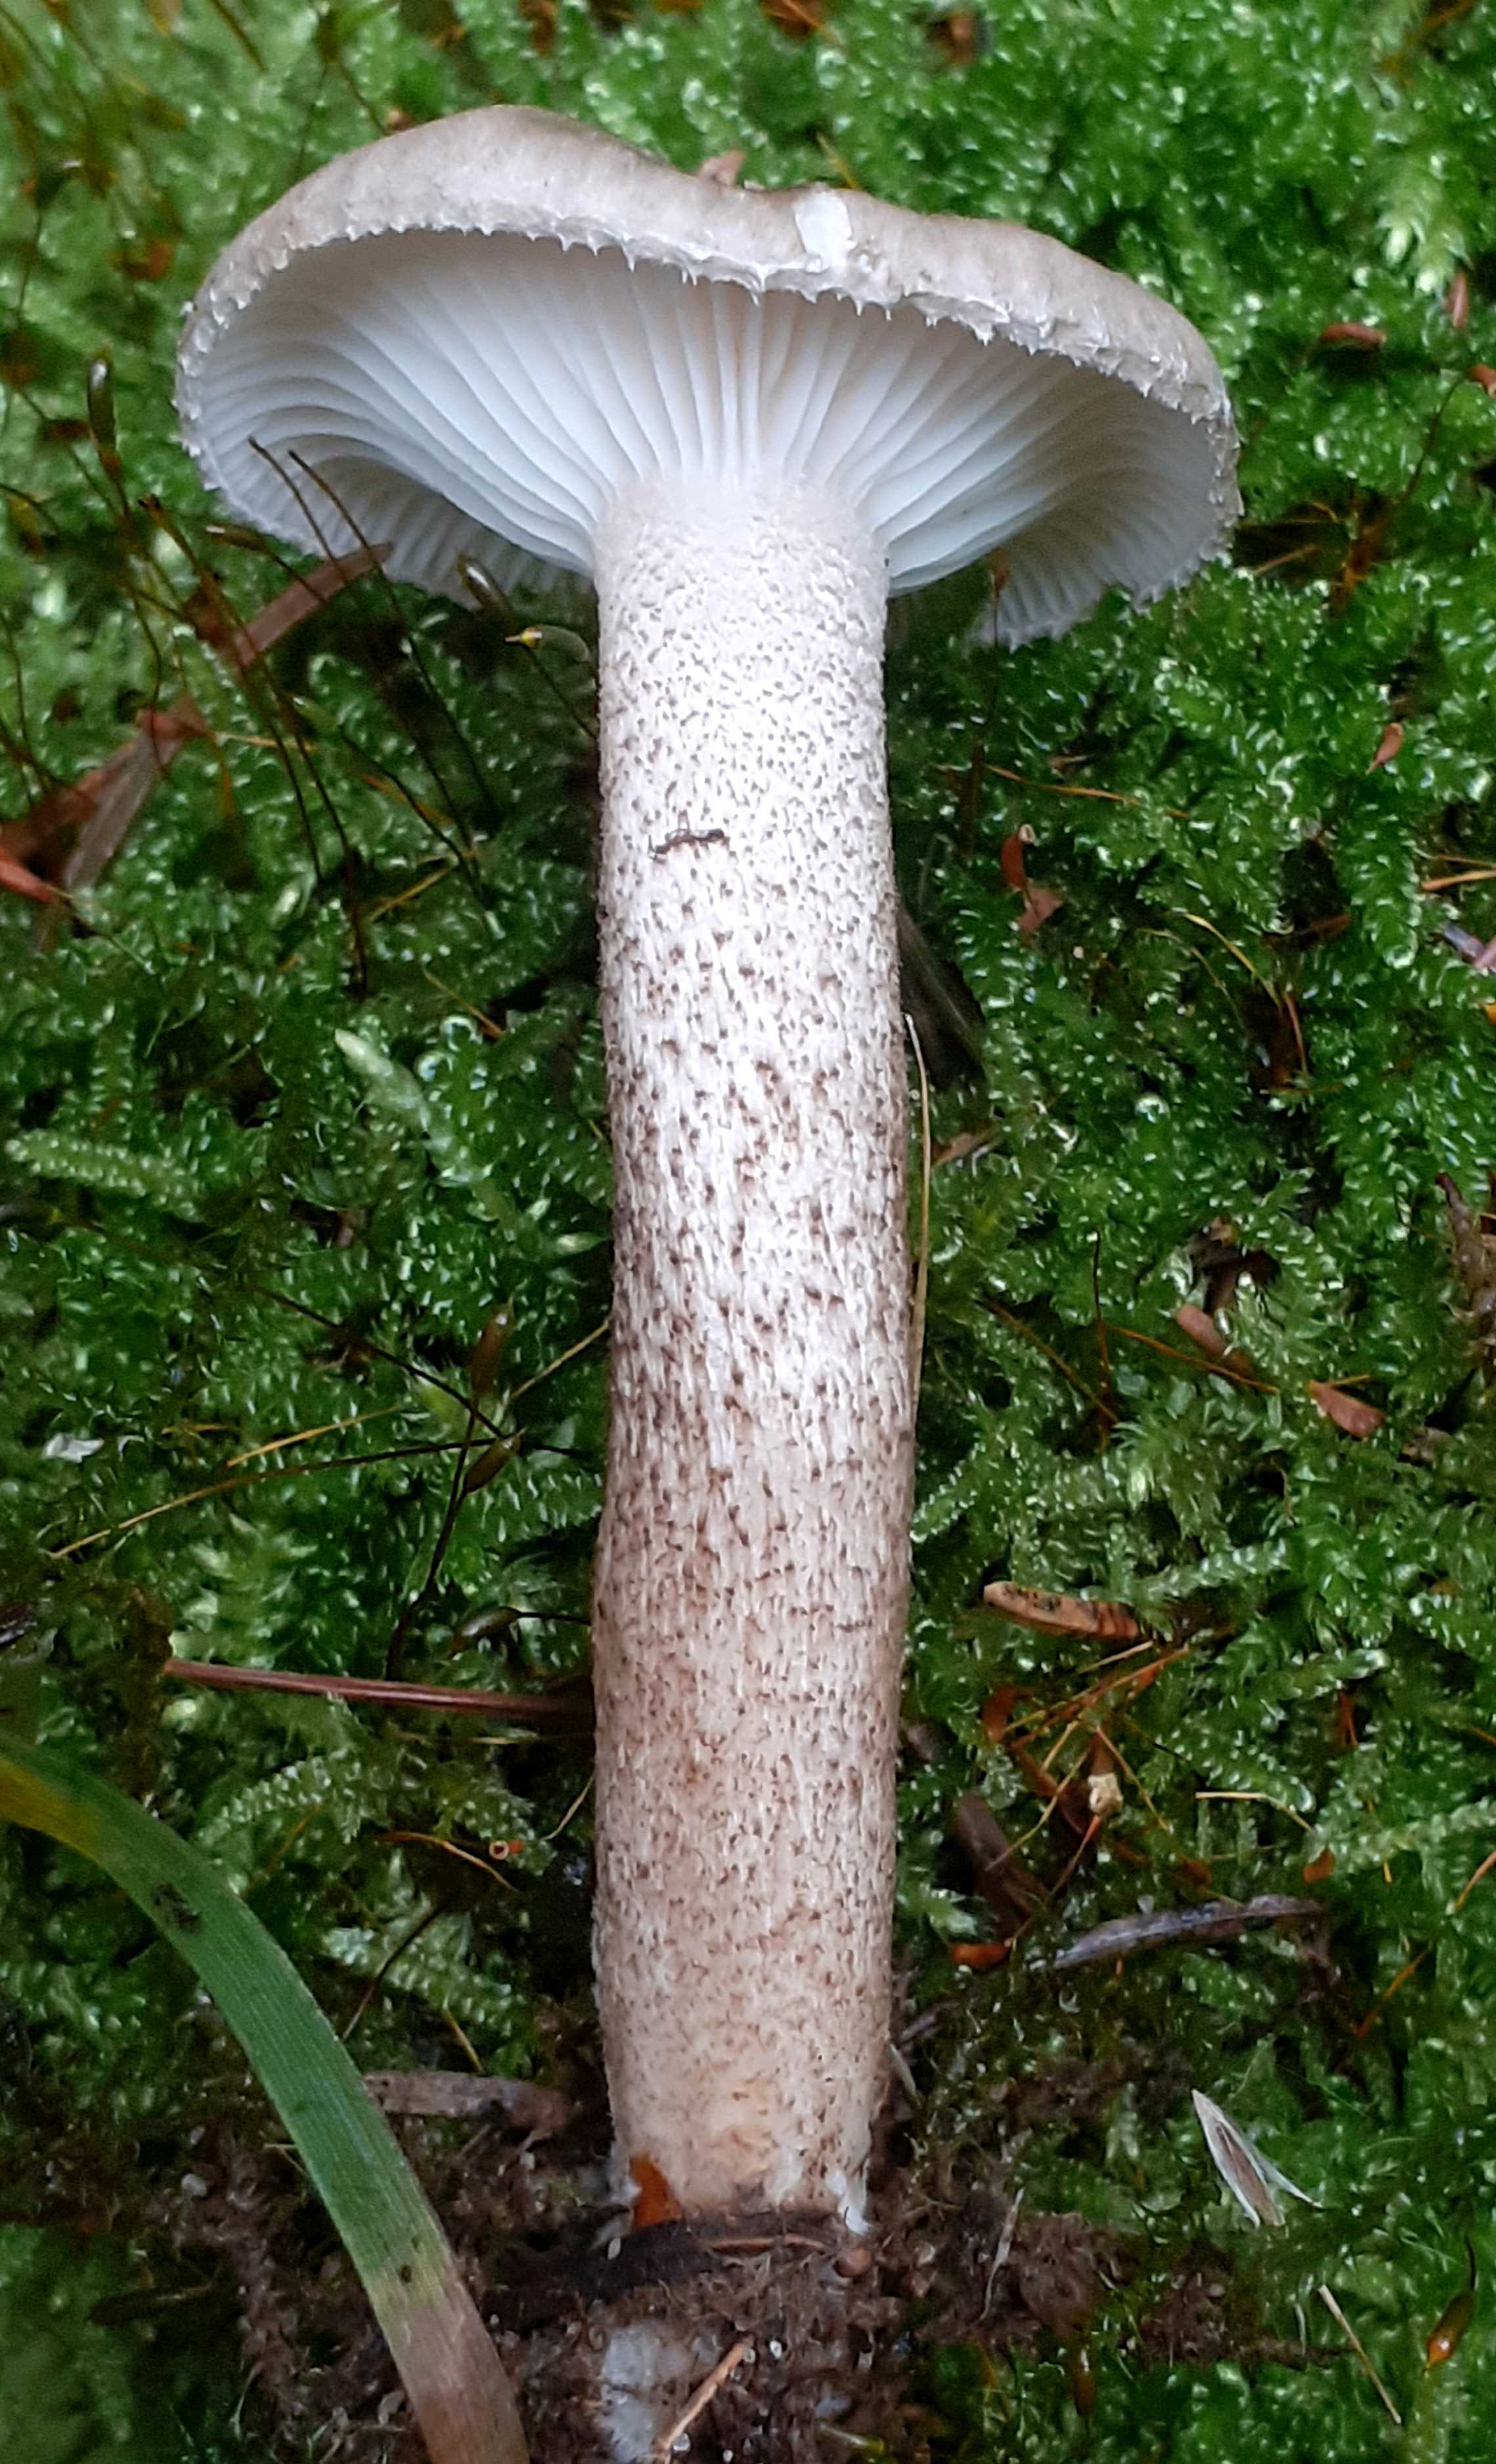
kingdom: Fungi
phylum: Basidiomycota
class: Agaricomycetes
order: Agaricales
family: Hygrophoraceae
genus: Hygrophorus
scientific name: Hygrophorus pustulatus
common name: mørkprikket sneglehat
